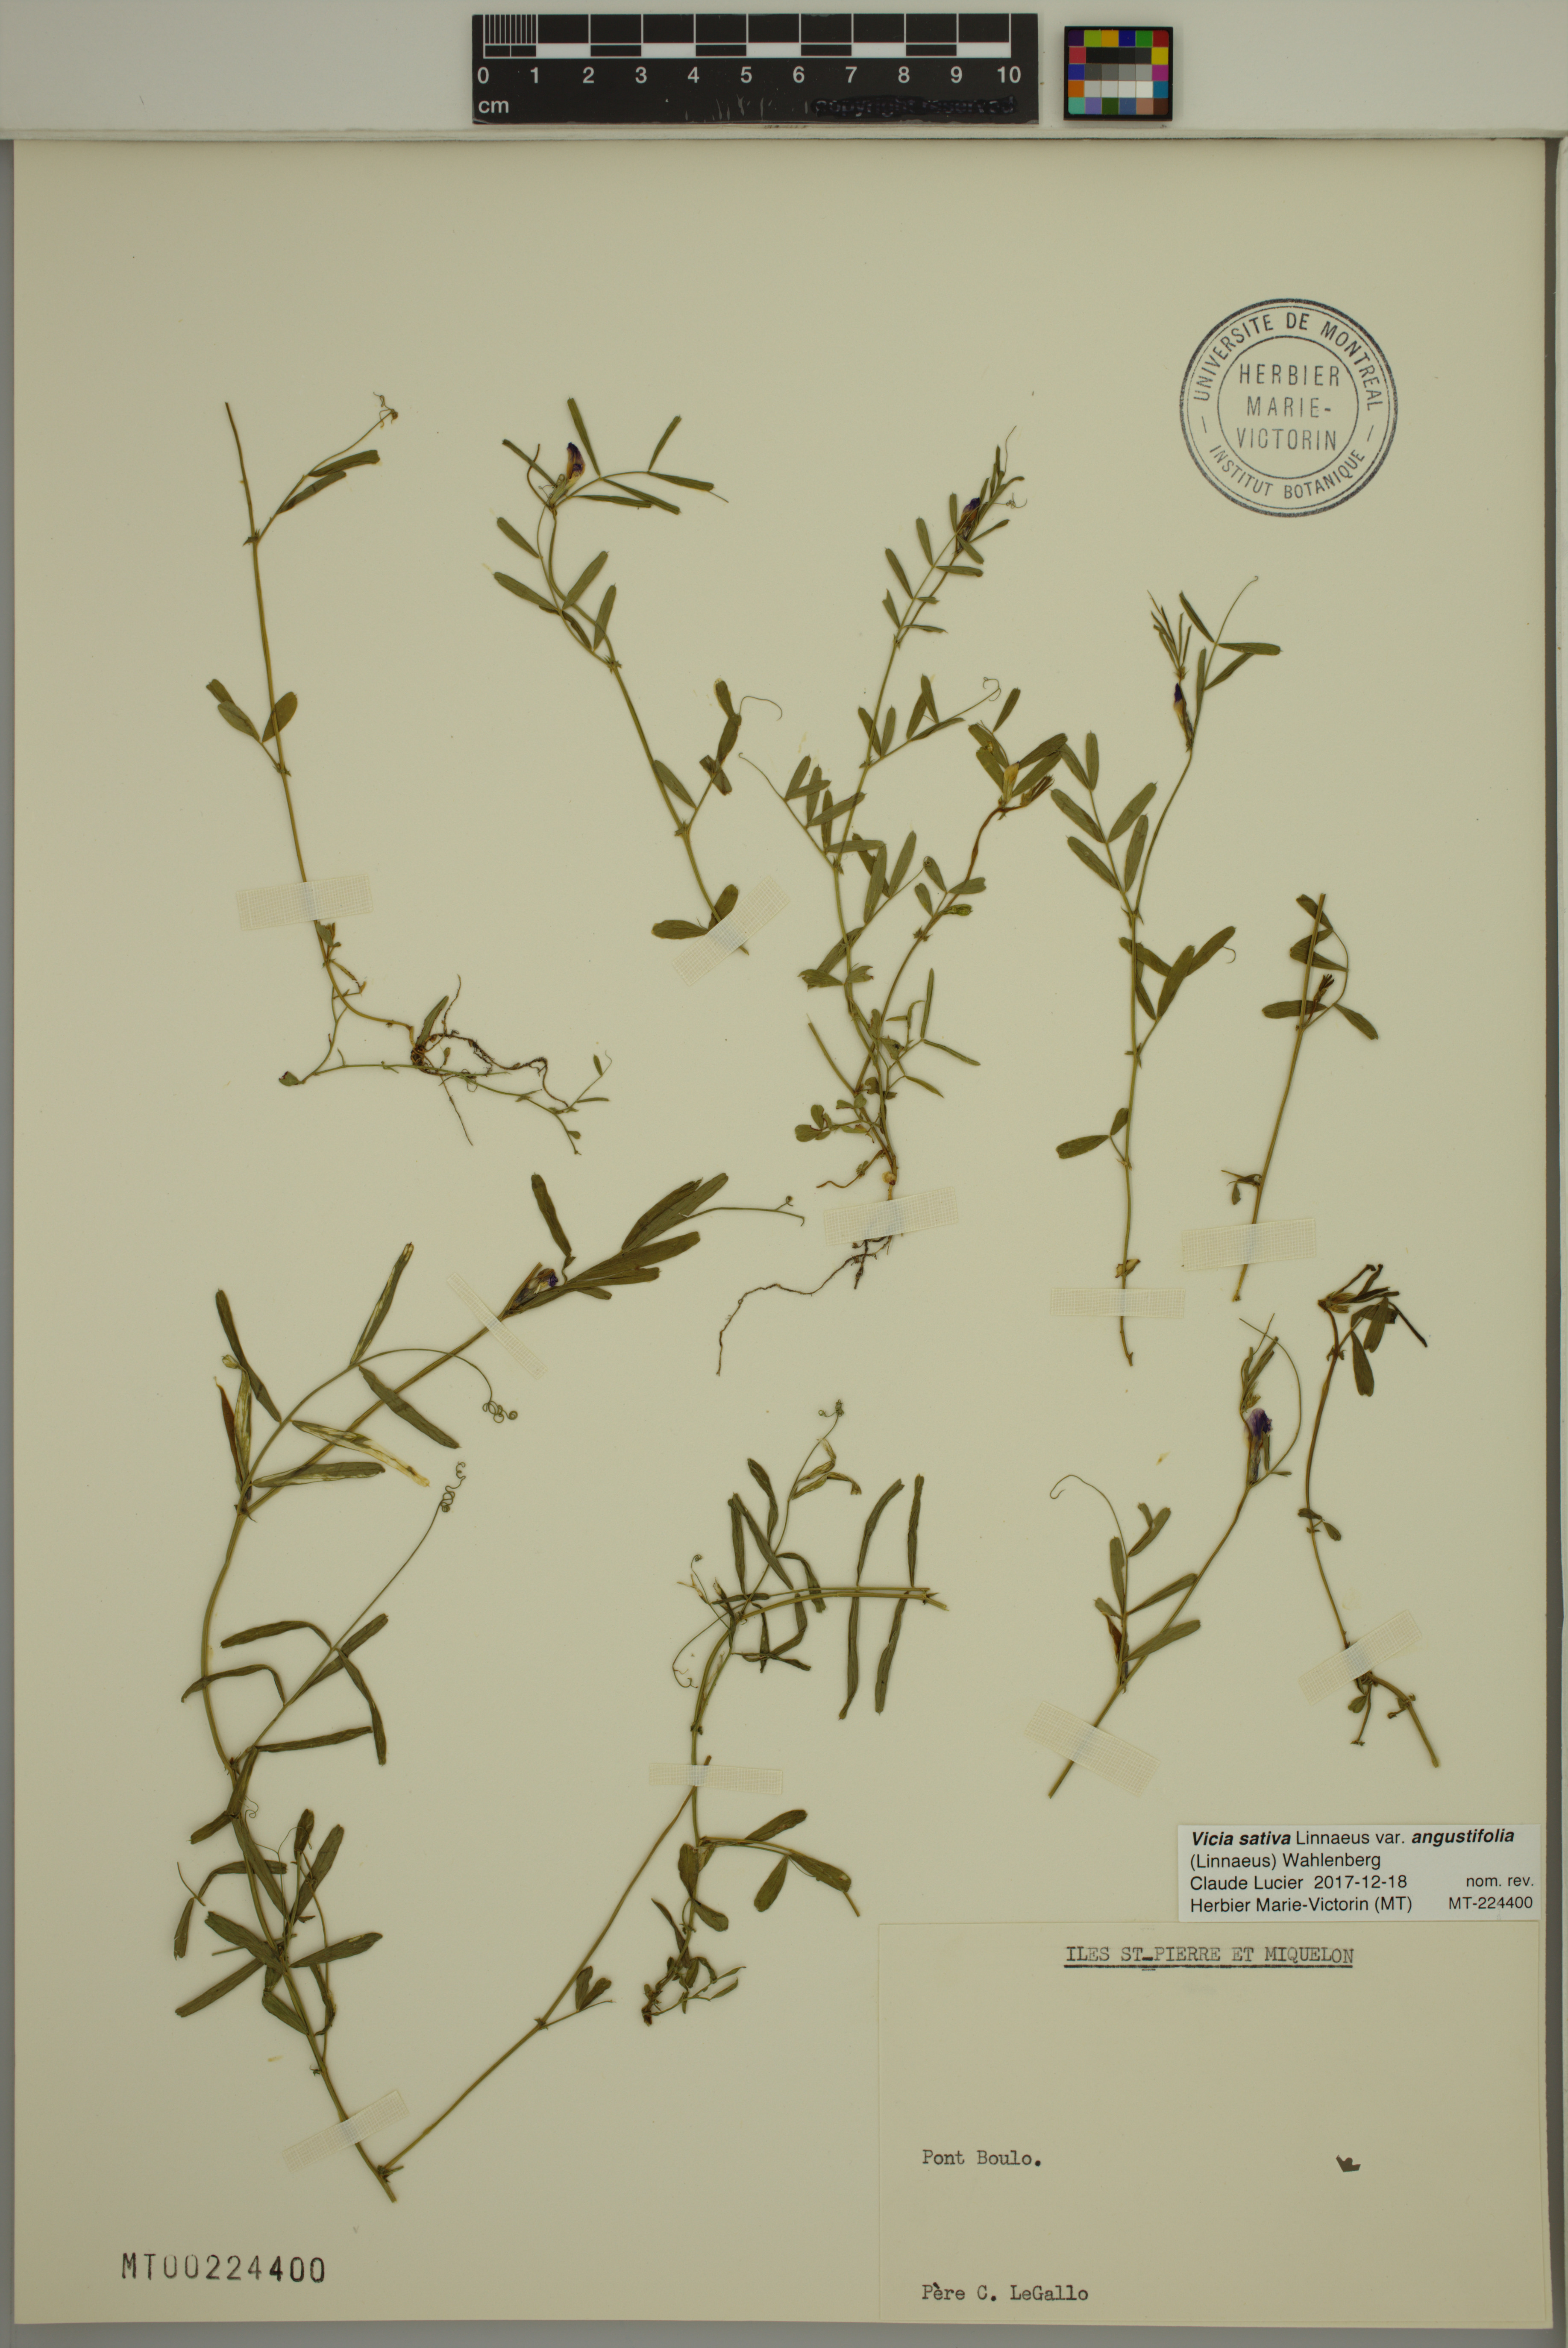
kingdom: Plantae
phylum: Tracheophyta
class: Magnoliopsida
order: Fabales
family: Fabaceae
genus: Vicia
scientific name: Vicia sativa
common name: Garden vetch
